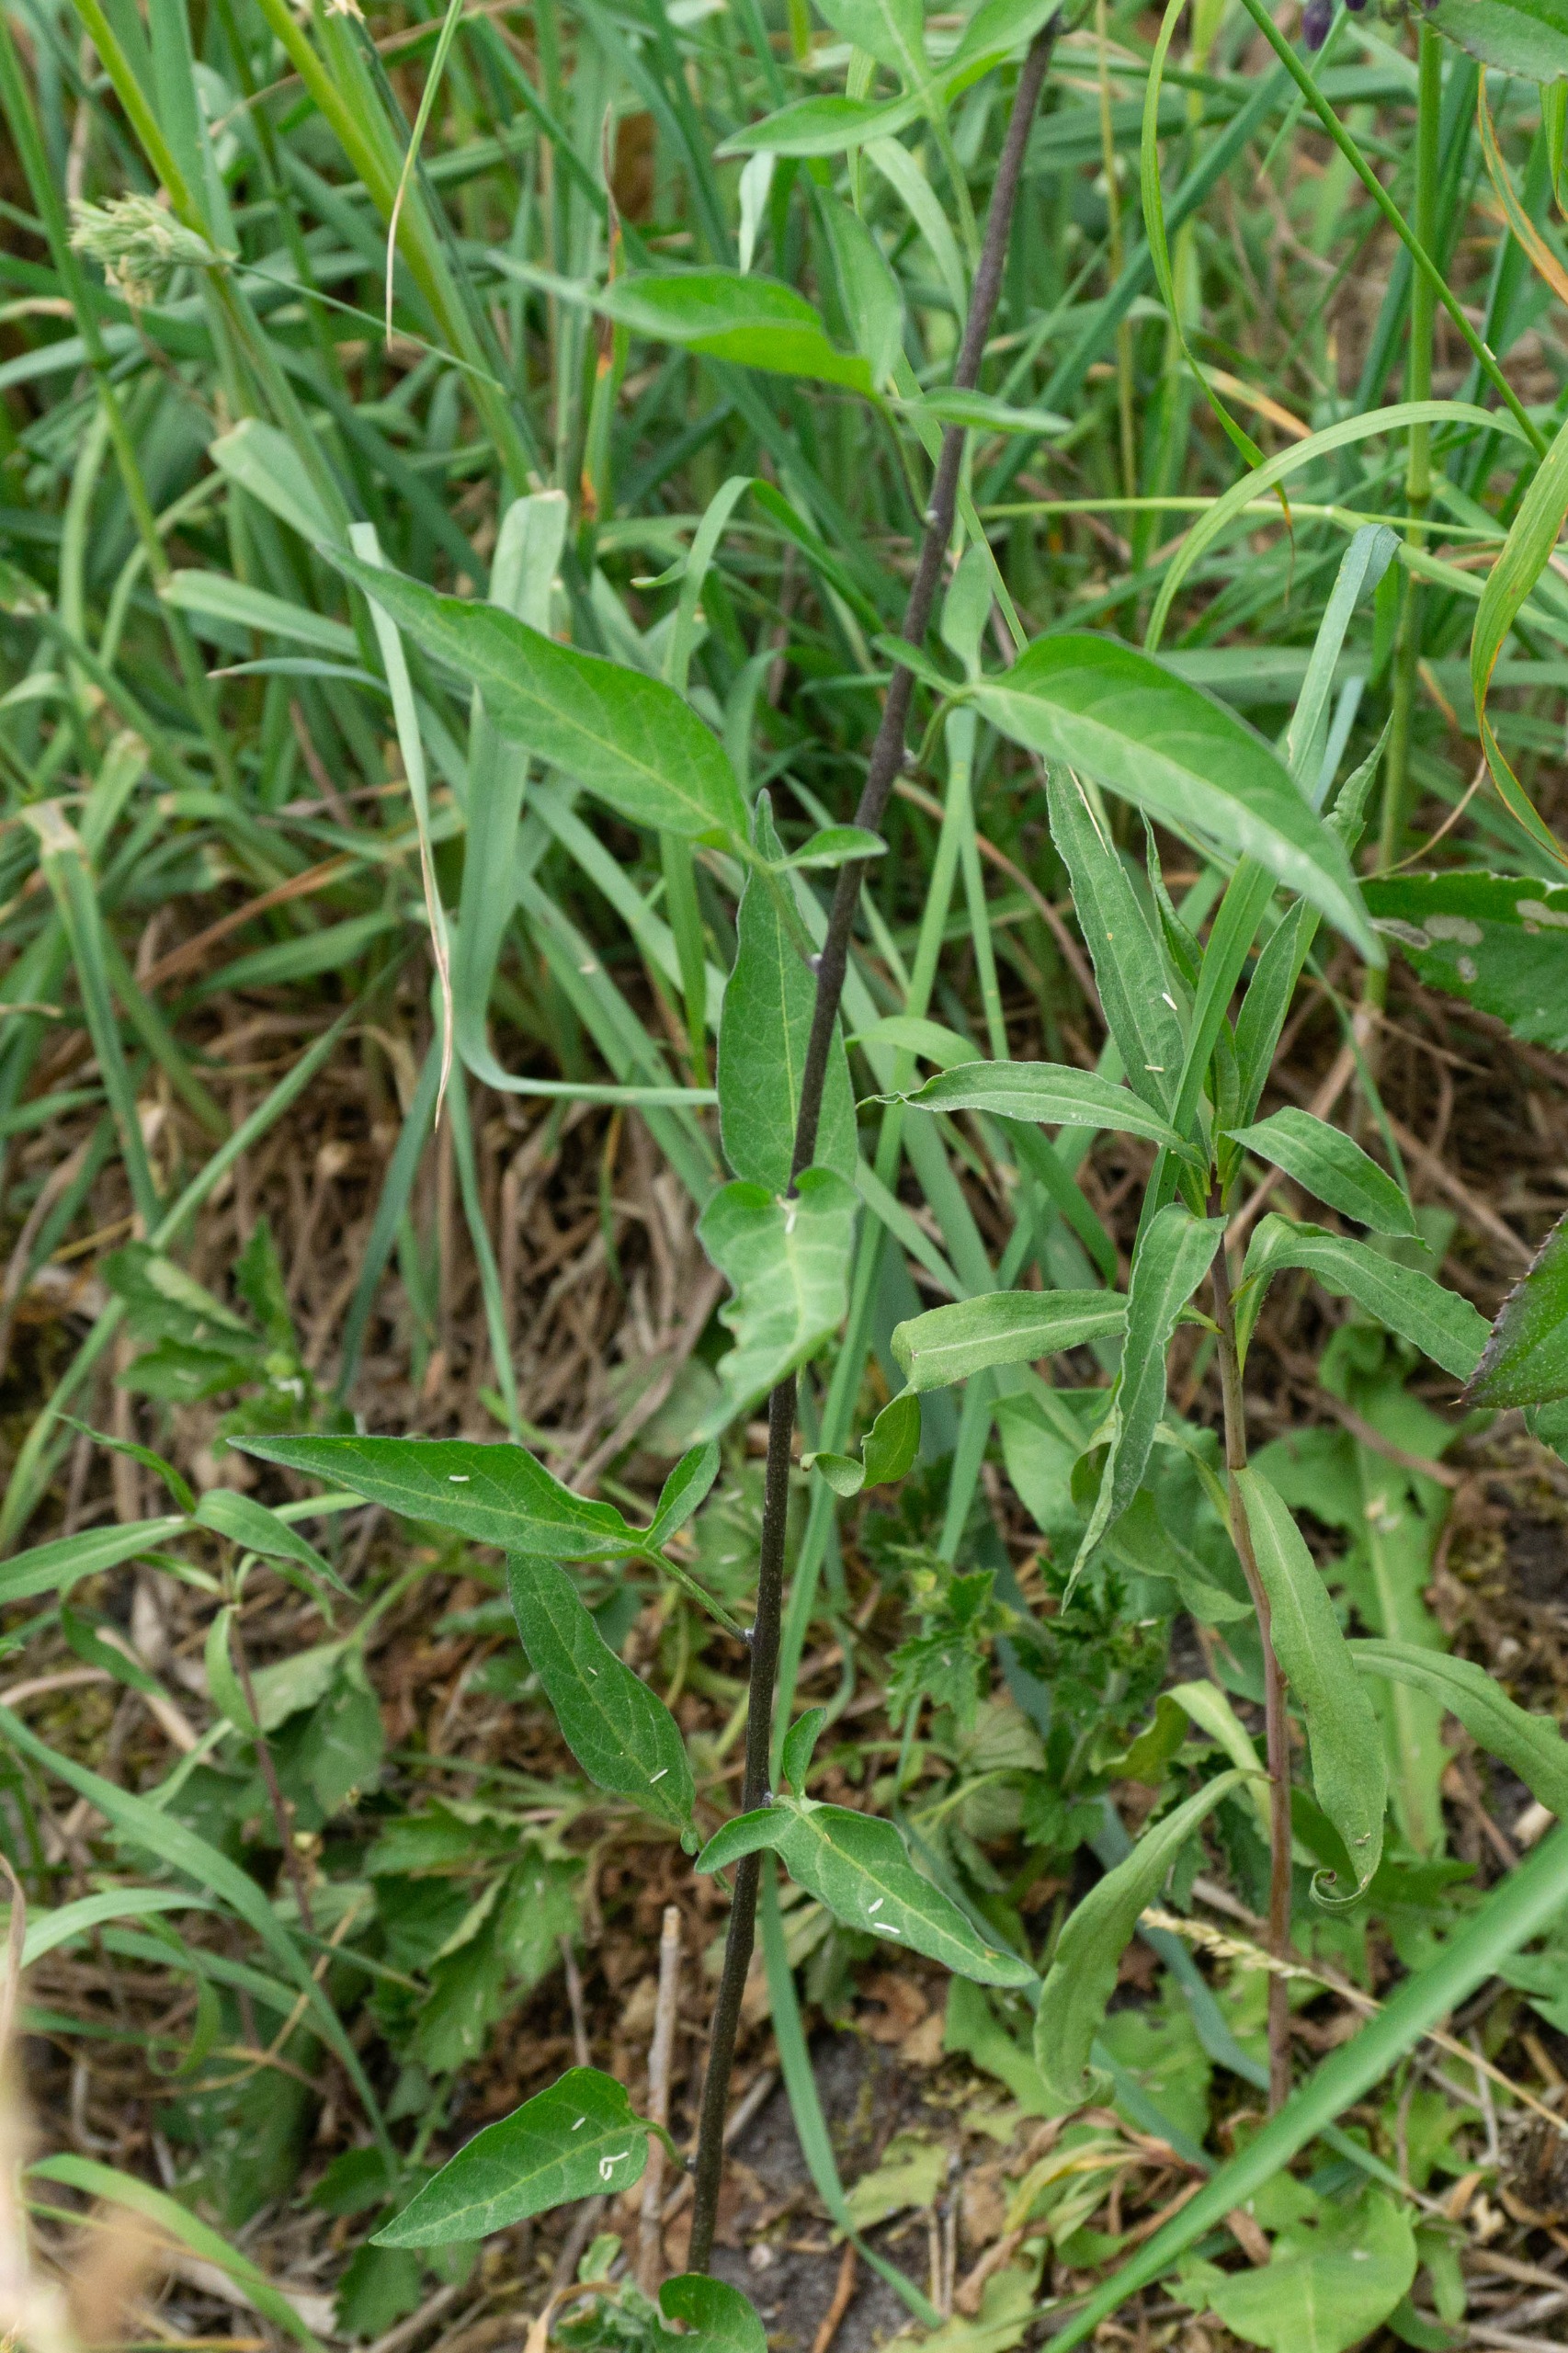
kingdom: Plantae
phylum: Tracheophyta
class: Magnoliopsida
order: Solanales
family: Solanaceae
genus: Solanum
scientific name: Solanum dulcamara
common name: Bittersød natskygge
